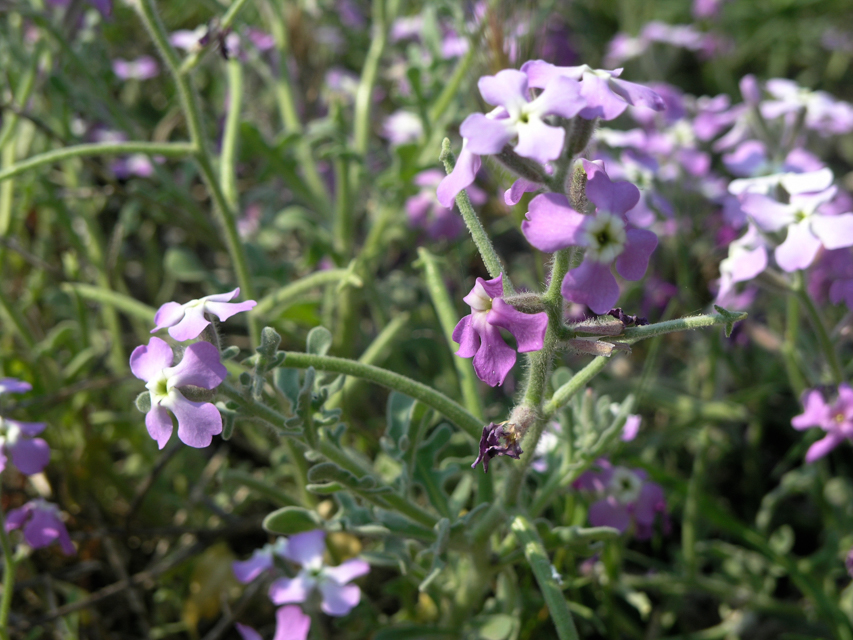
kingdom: Plantae
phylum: Tracheophyta
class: Magnoliopsida
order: Brassicales
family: Brassicaceae
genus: Matthiola
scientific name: Matthiola tricuspidata
